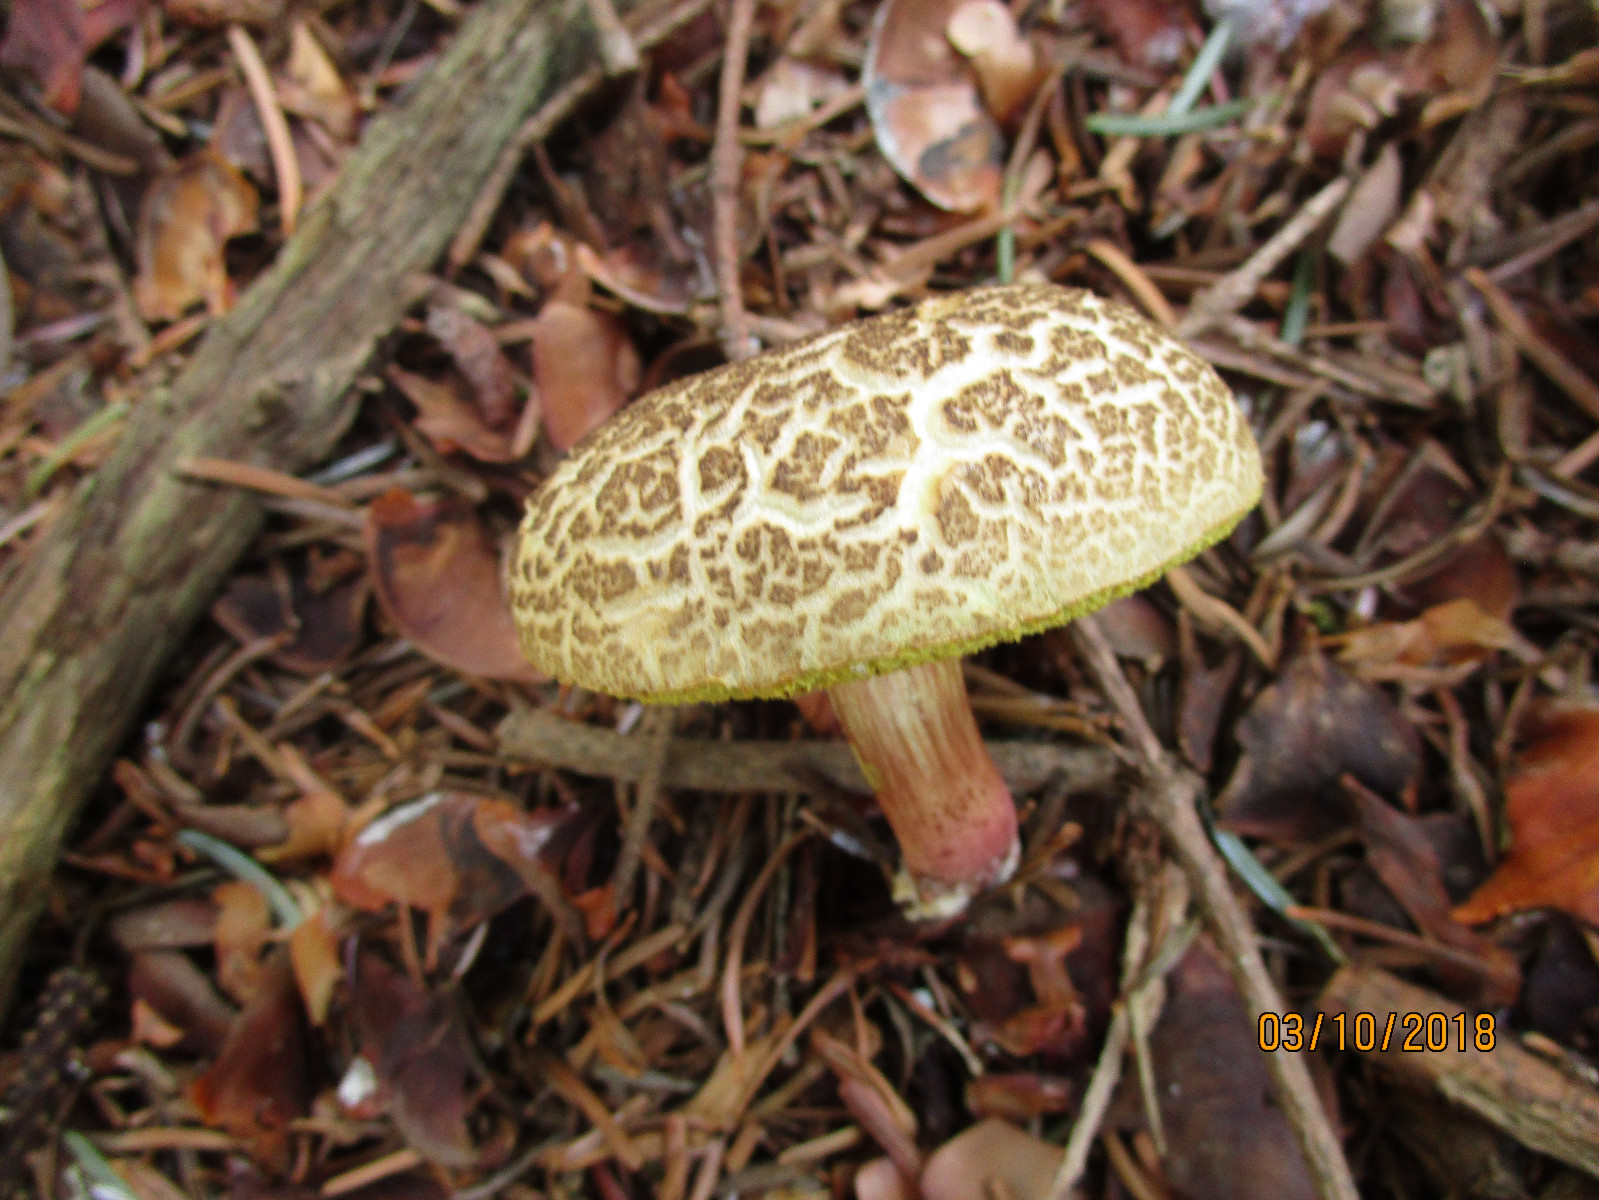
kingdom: Fungi
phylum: Basidiomycota
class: Agaricomycetes
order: Boletales
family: Boletaceae
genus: Xerocomellus
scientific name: Xerocomellus porosporus
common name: hvidsprukken rørhat
